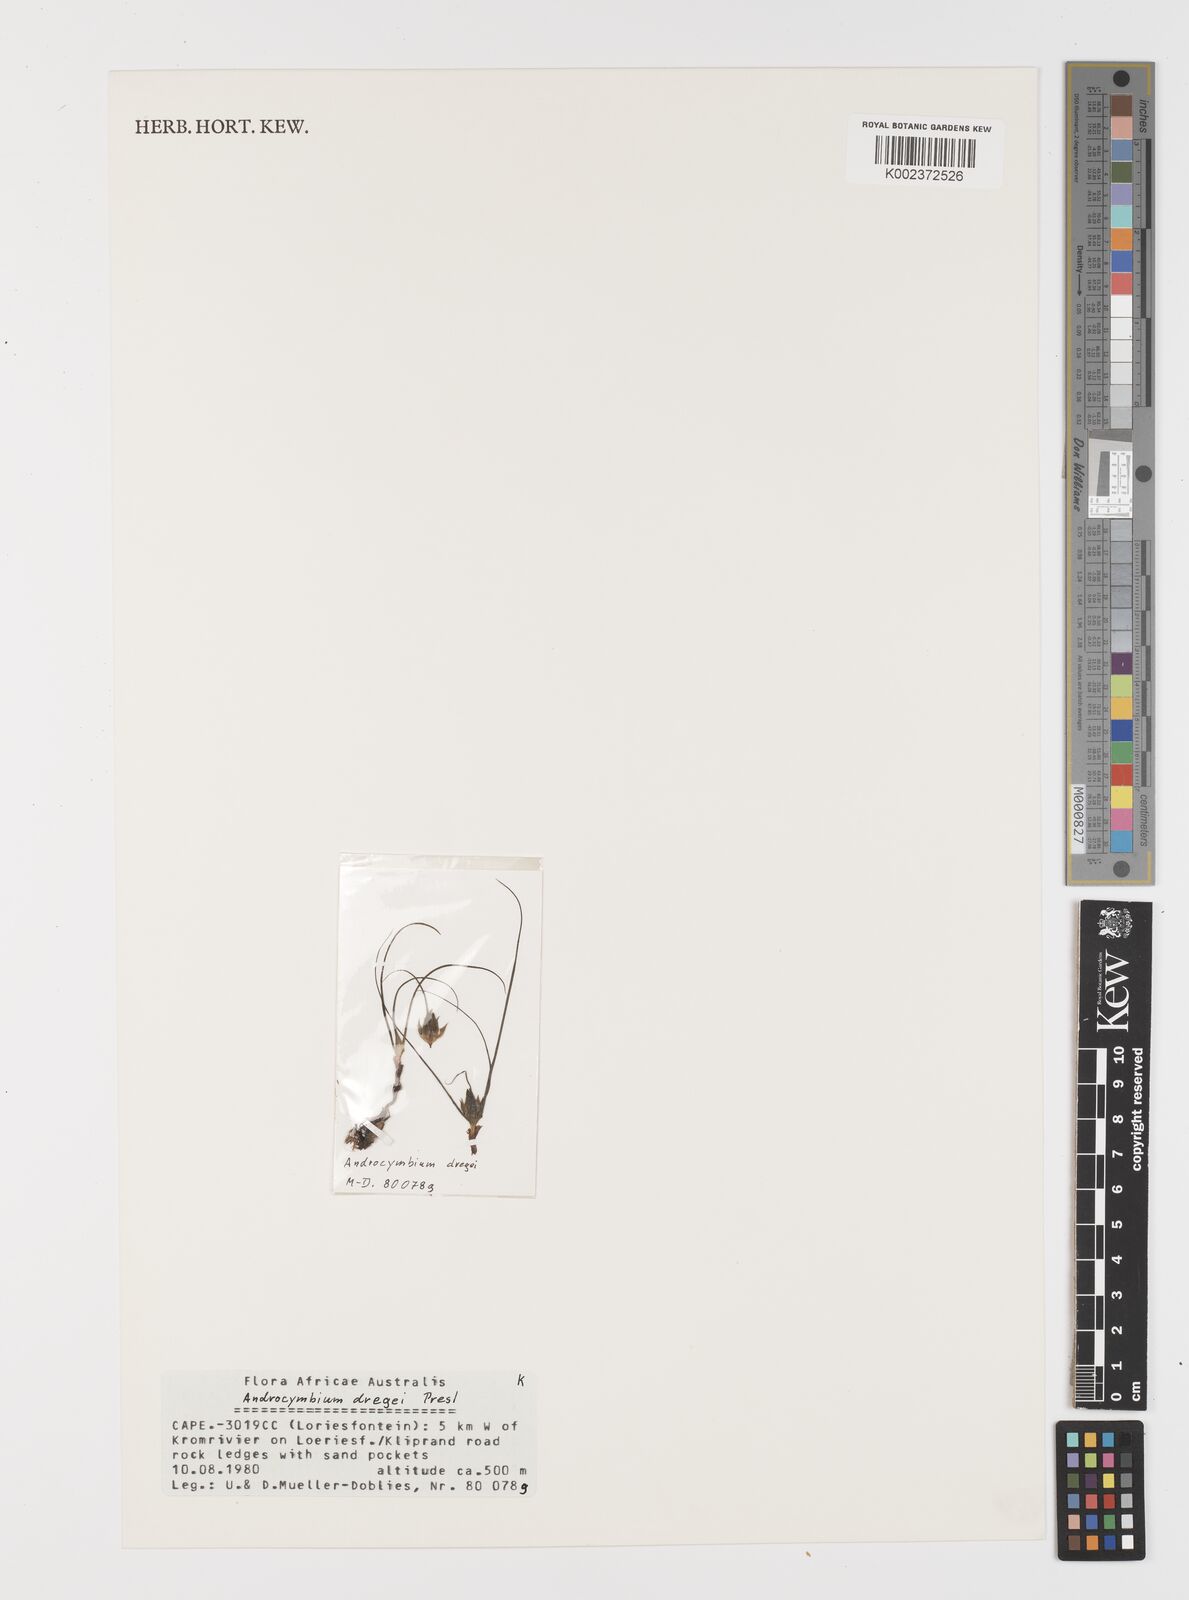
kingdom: Plantae
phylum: Tracheophyta
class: Liliopsida
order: Liliales
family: Colchicaceae
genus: Colchicum
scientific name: Colchicum dregei
